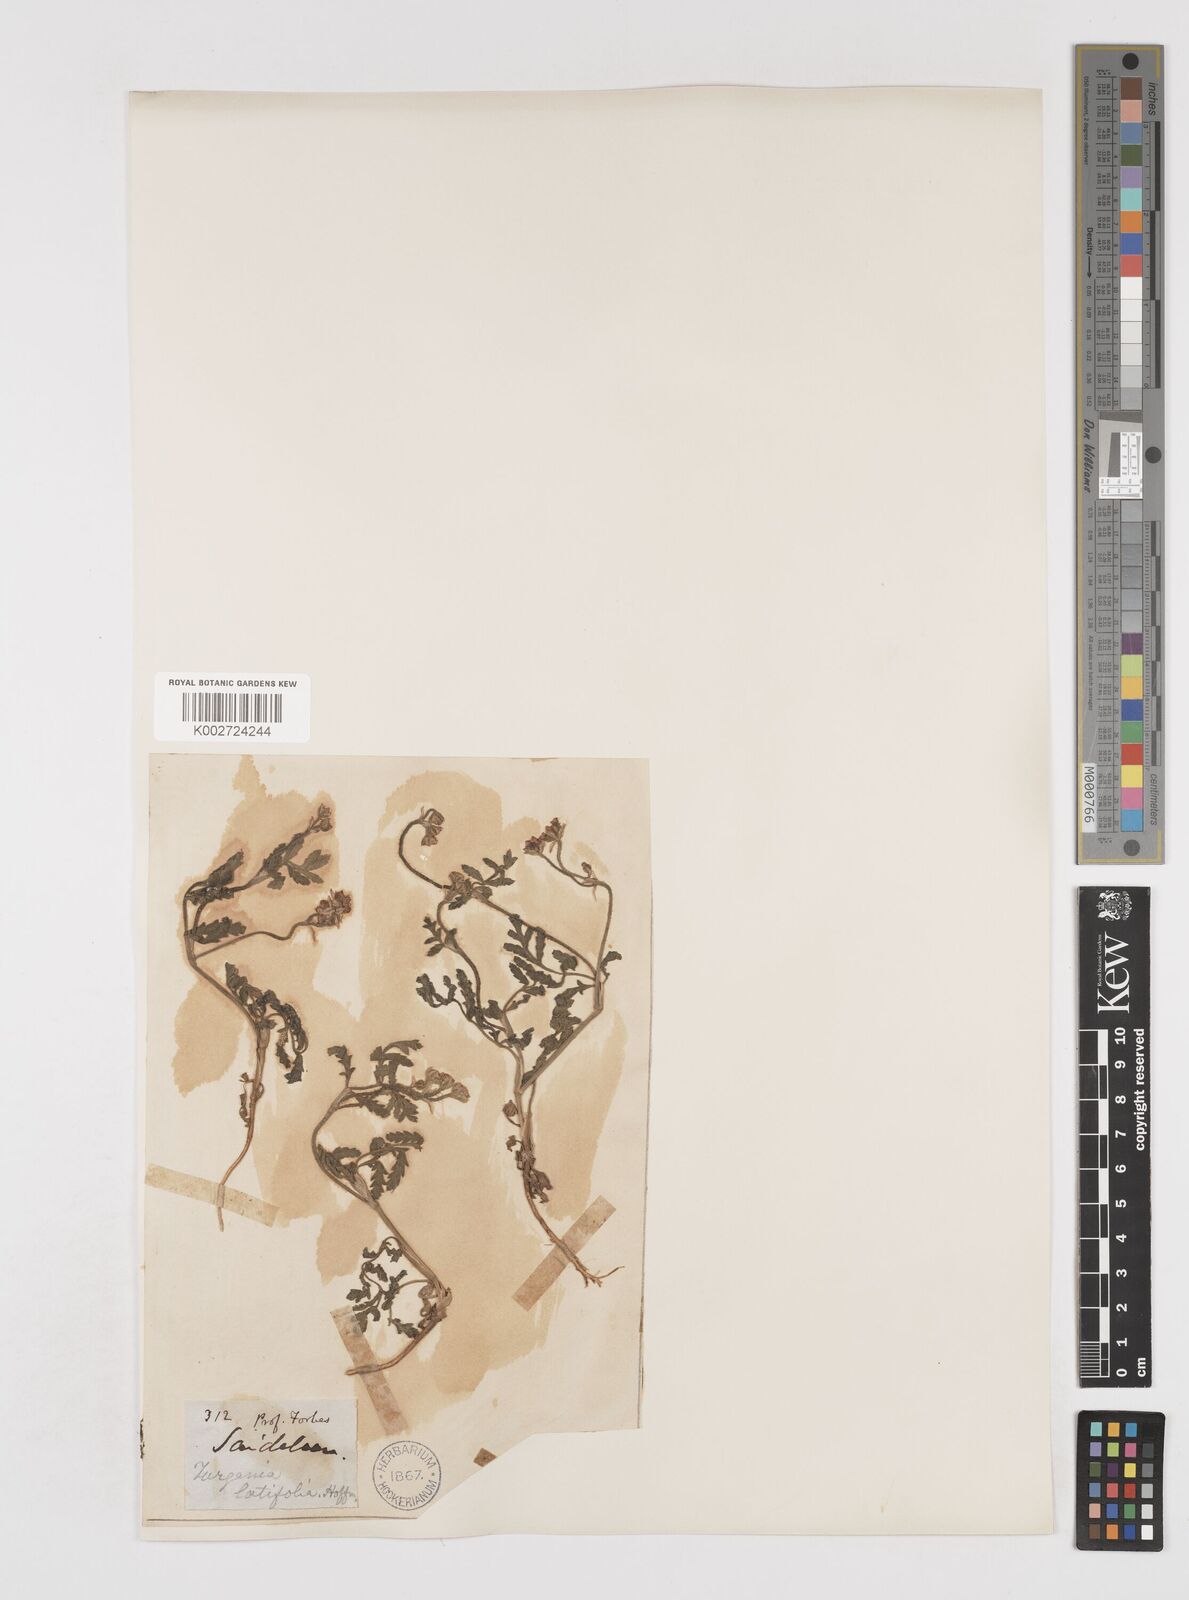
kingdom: Plantae
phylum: Tracheophyta
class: Magnoliopsida
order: Apiales
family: Apiaceae
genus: Turgenia
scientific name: Turgenia latifolia
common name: Greater bur-parsley
